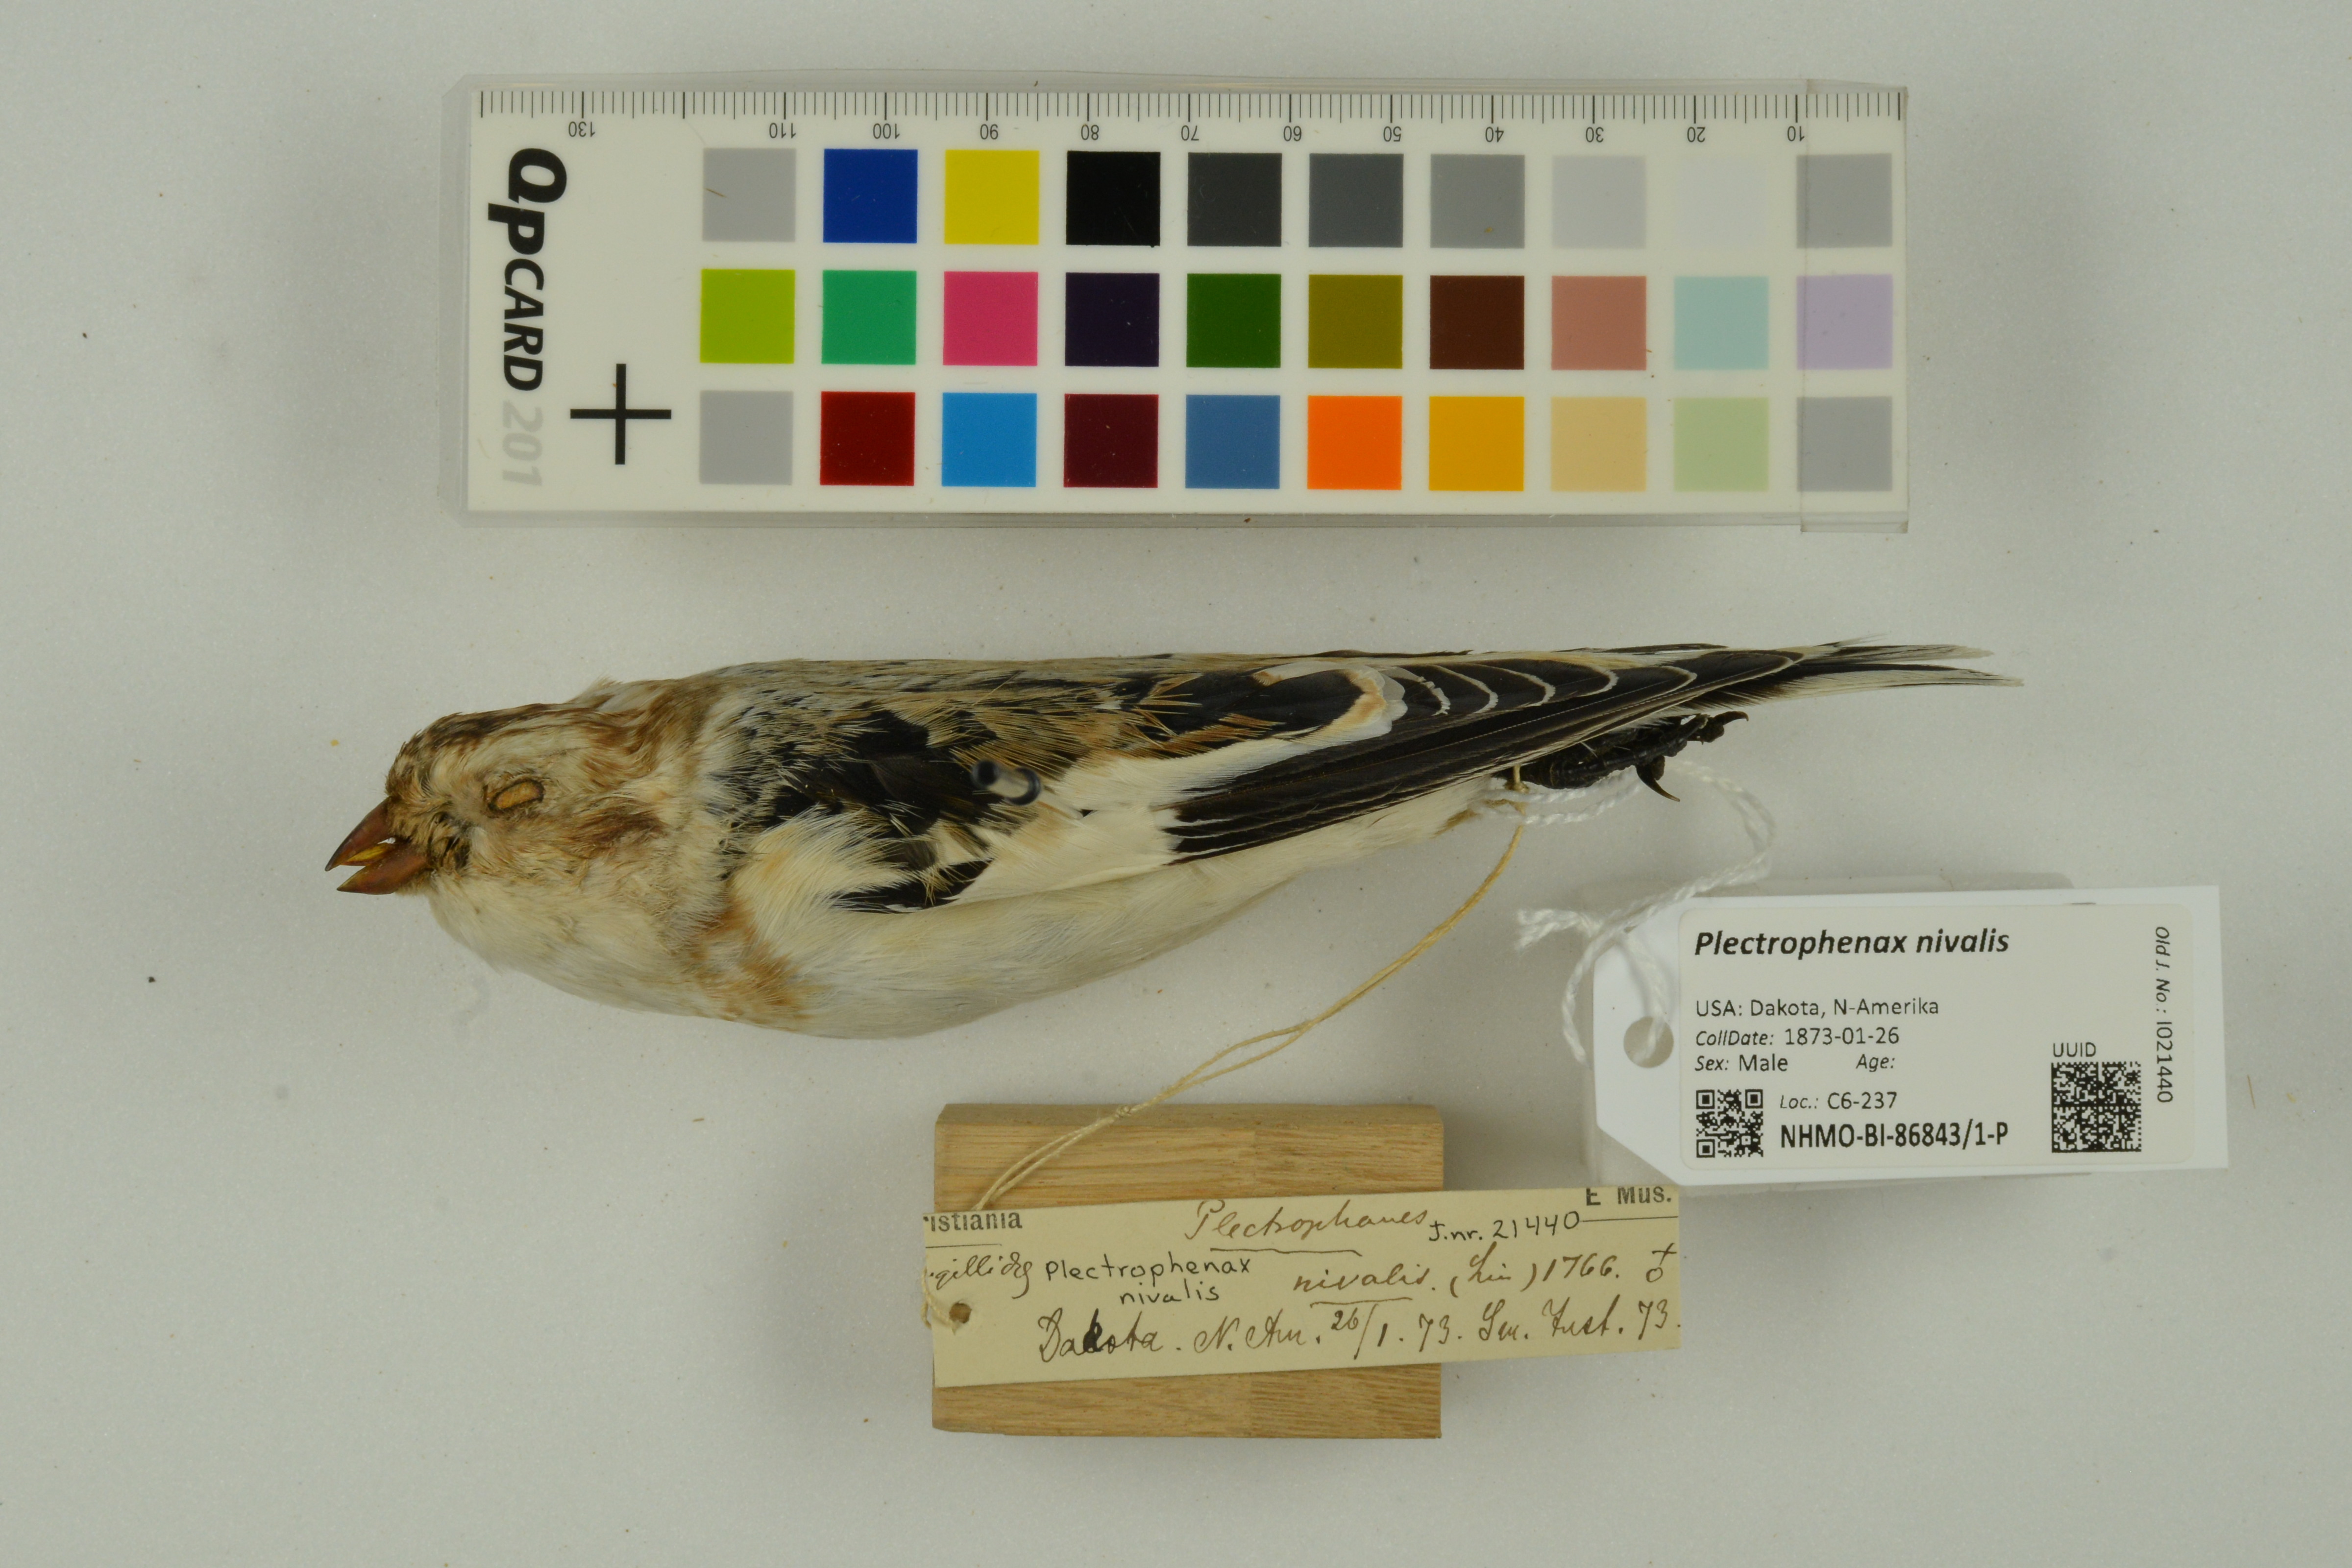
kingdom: Animalia
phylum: Chordata
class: Aves
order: Passeriformes
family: Calcariidae
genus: Plectrophenax
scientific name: Plectrophenax nivalis
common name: Snow bunting
